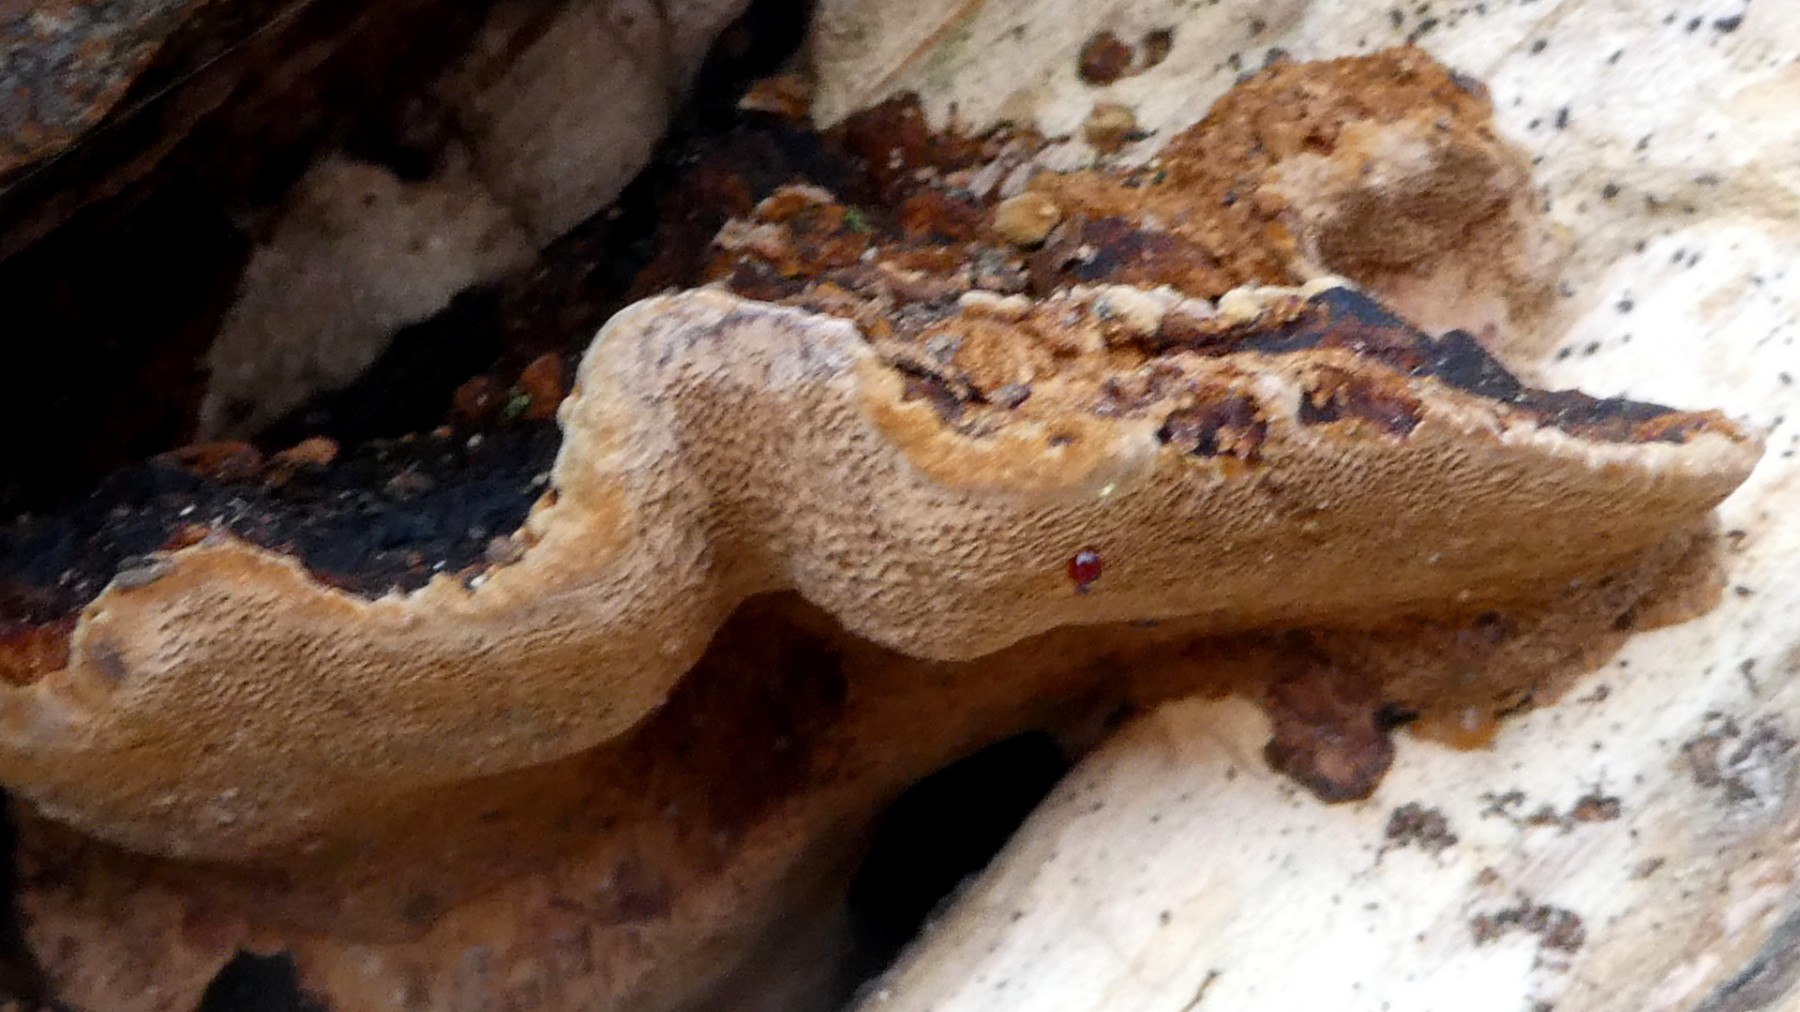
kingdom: Fungi
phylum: Basidiomycota
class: Agaricomycetes
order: Hymenochaetales
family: Hymenochaetaceae
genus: Phellinopsis
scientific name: Phellinopsis conchata
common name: pile-ildporesvamp
